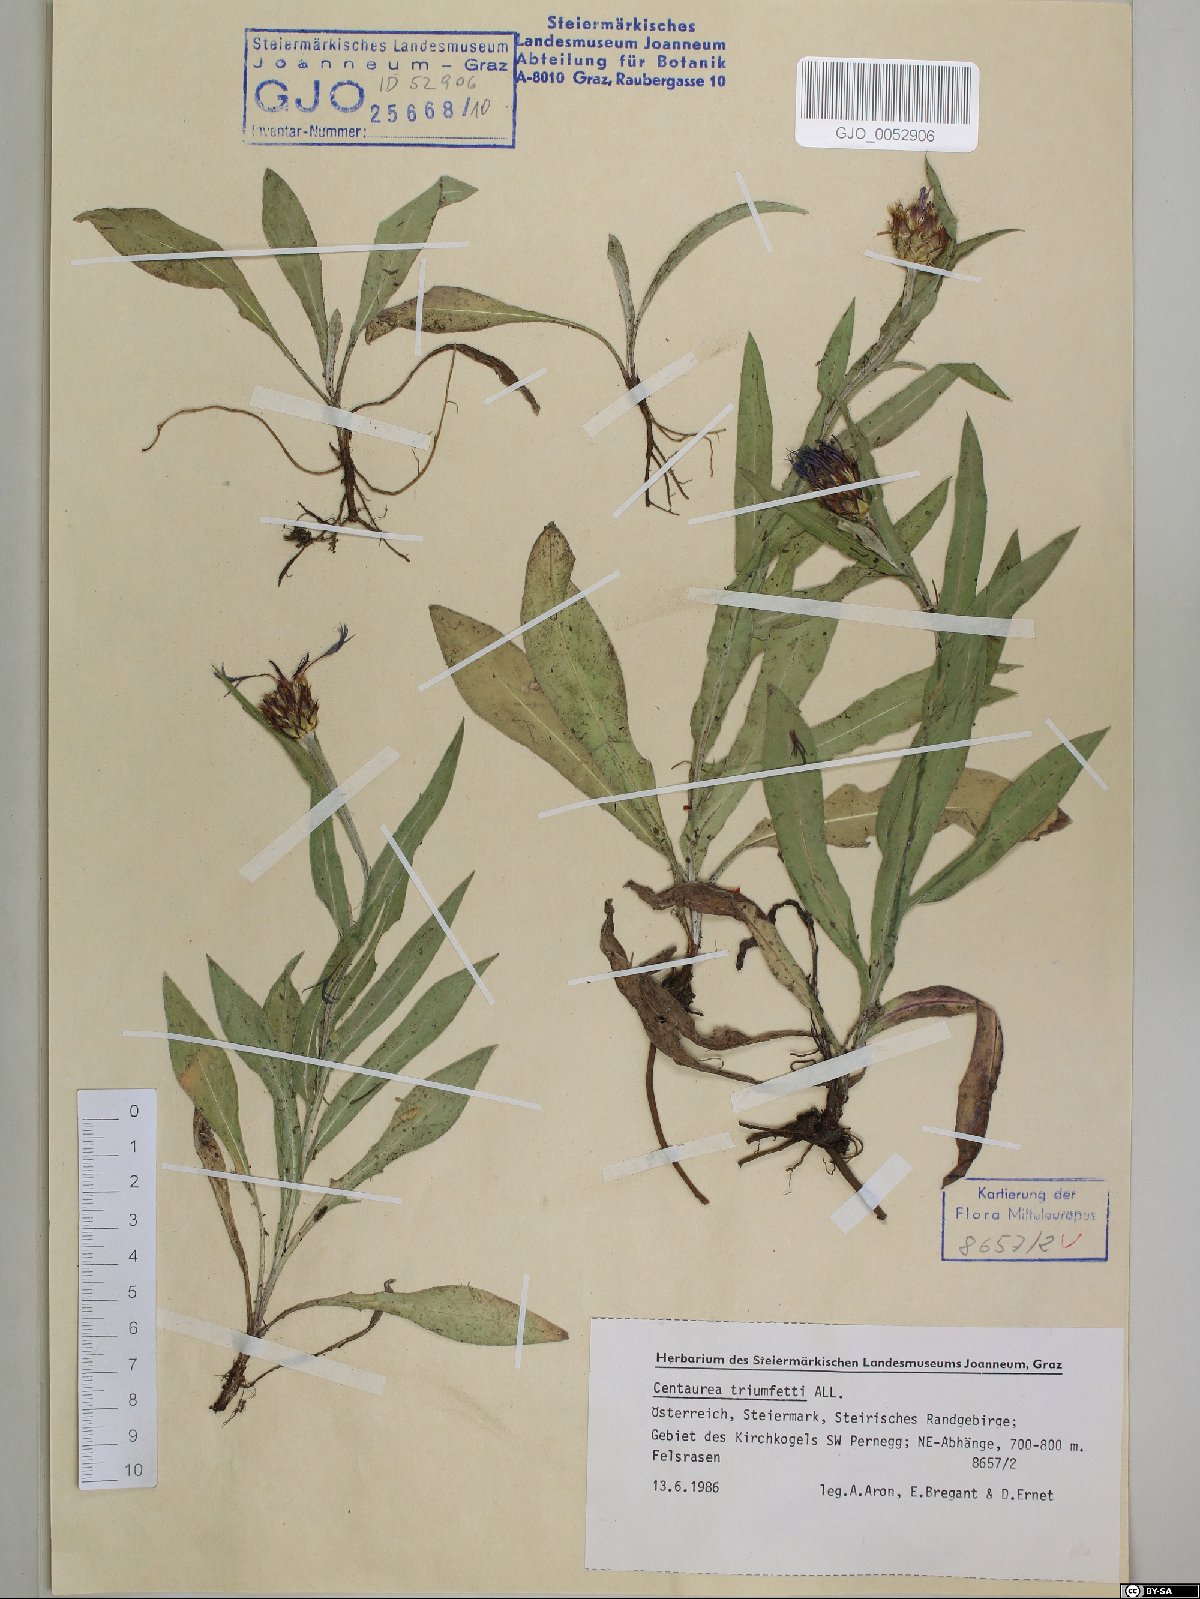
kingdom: Plantae
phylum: Tracheophyta
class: Magnoliopsida
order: Asterales
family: Asteraceae
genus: Centaurea
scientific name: Centaurea triumfettii
